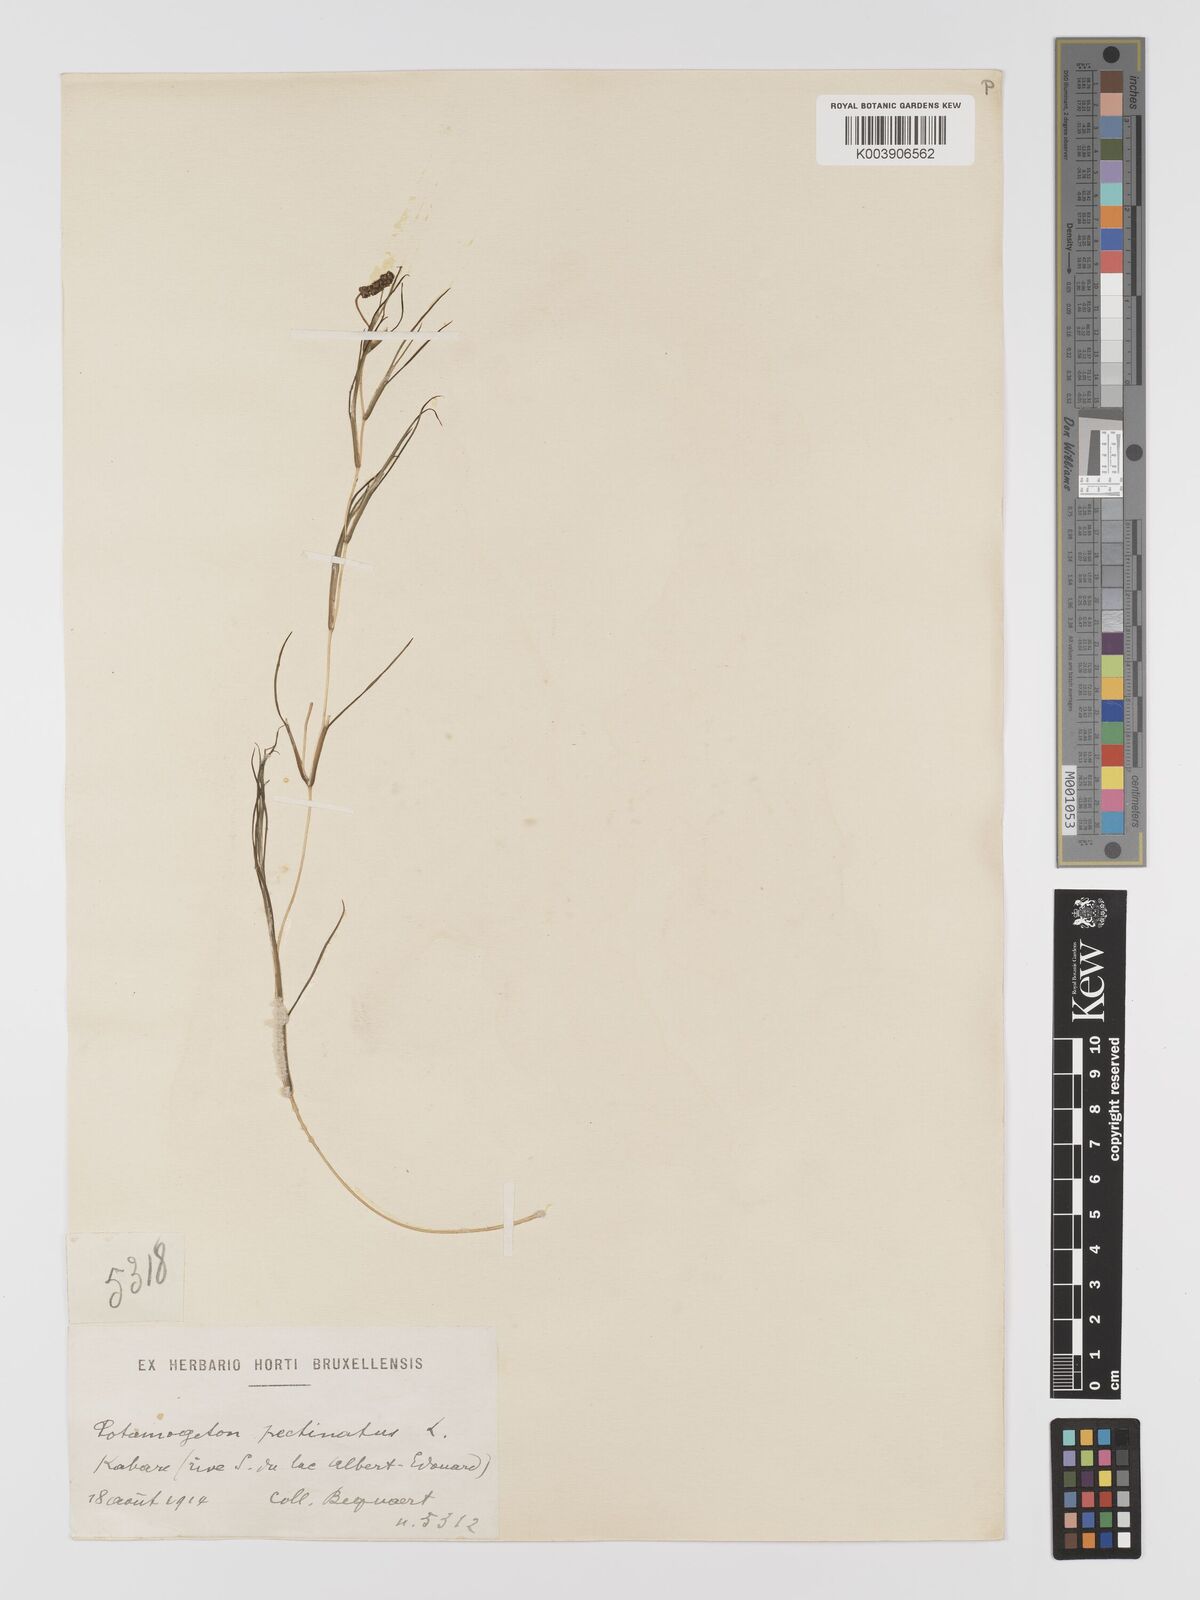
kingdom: Plantae
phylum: Tracheophyta
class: Liliopsida
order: Alismatales
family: Potamogetonaceae
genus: Stuckenia
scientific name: Stuckenia pectinata
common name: Sago pondweed
